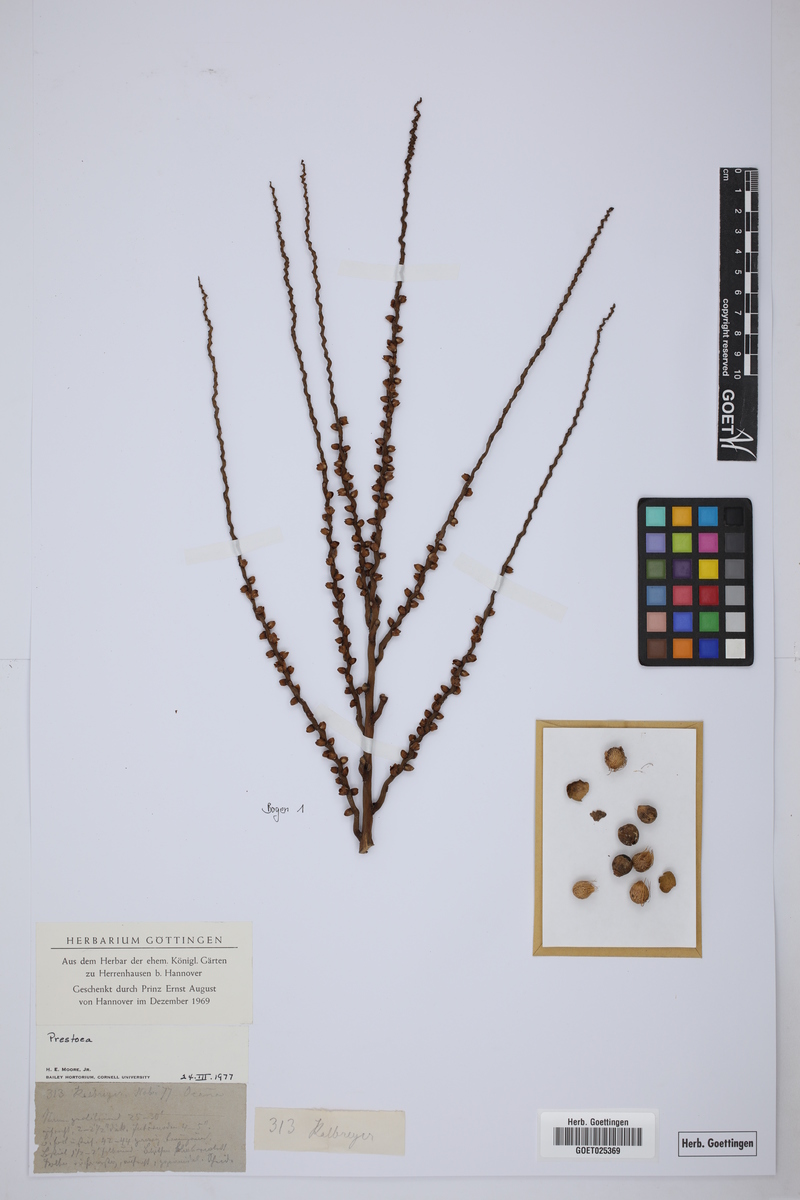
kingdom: Plantae
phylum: Tracheophyta
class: Liliopsida
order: Arecales
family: Arecaceae
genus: Prestoea
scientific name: Prestoea
